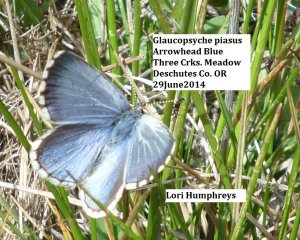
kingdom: Animalia
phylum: Arthropoda
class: Insecta
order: Lepidoptera
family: Lycaenidae
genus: Glaucopsyche
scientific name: Glaucopsyche piasus
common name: Arrowhead Blue
